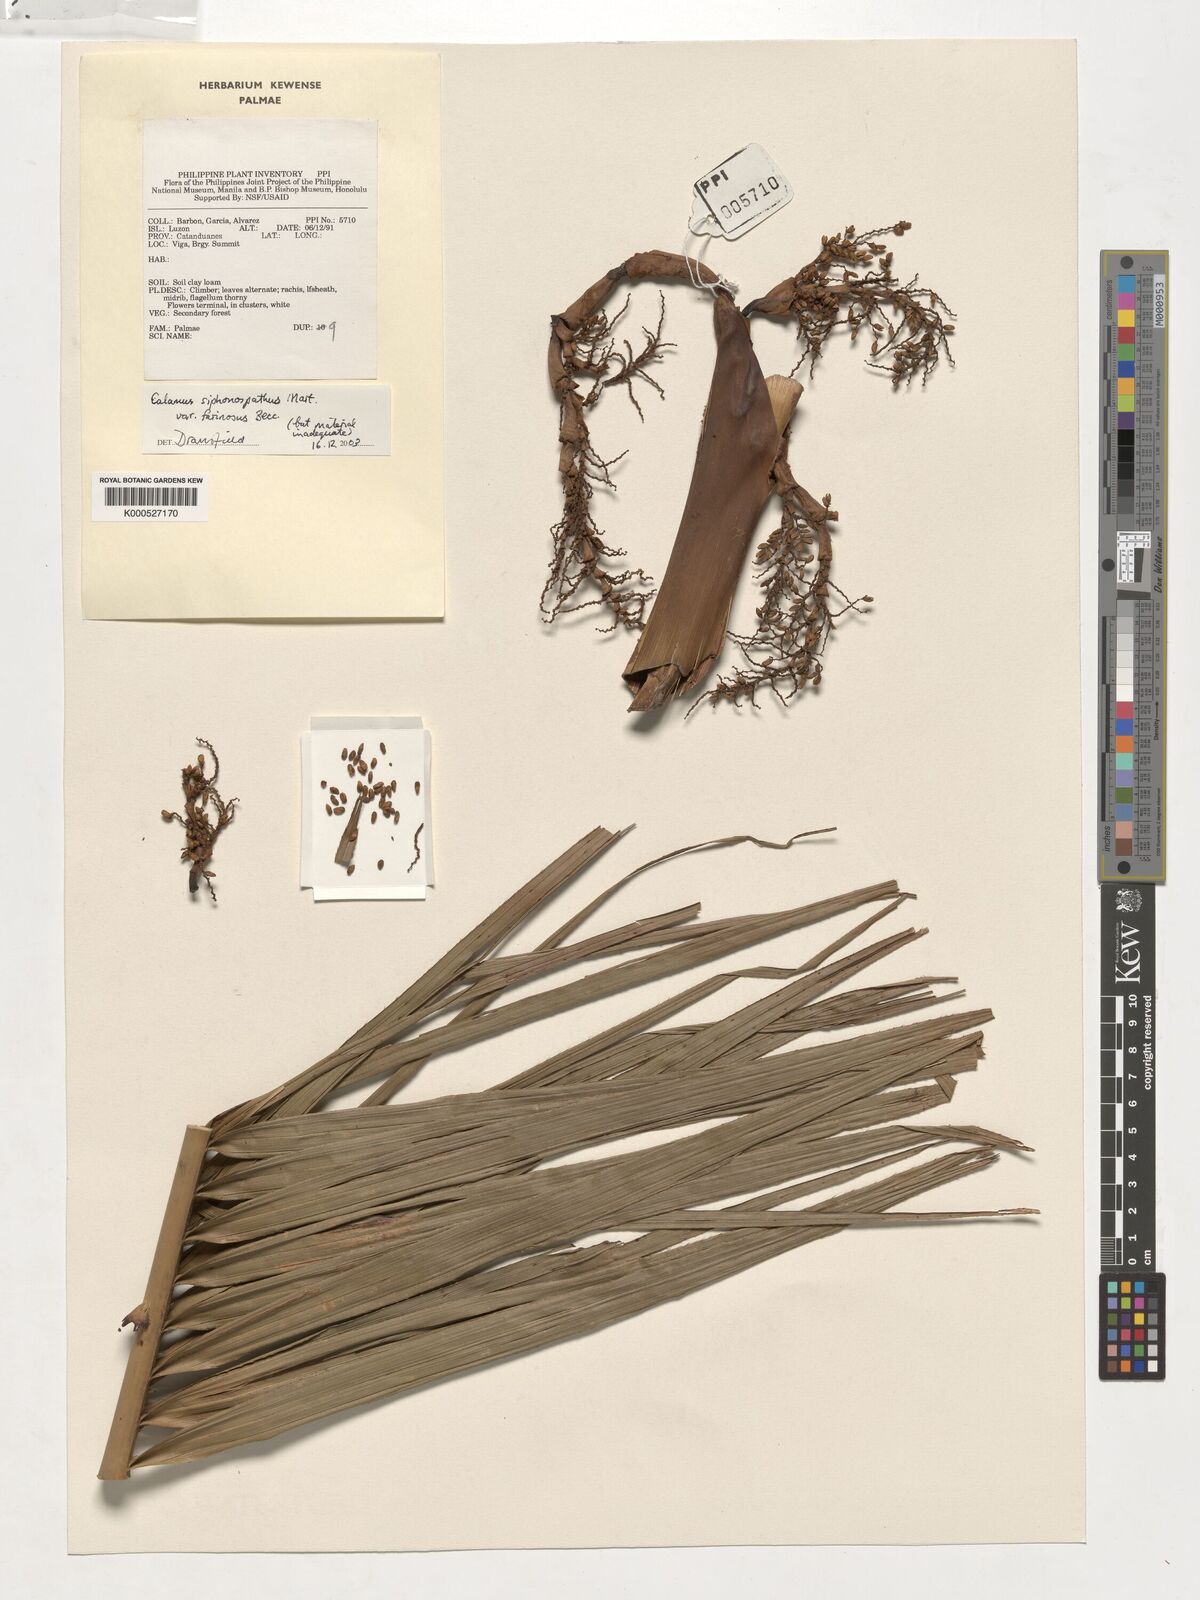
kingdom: Plantae
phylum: Tracheophyta
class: Liliopsida
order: Arecales
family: Arecaceae
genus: Calamus
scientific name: Calamus siphonospathus
